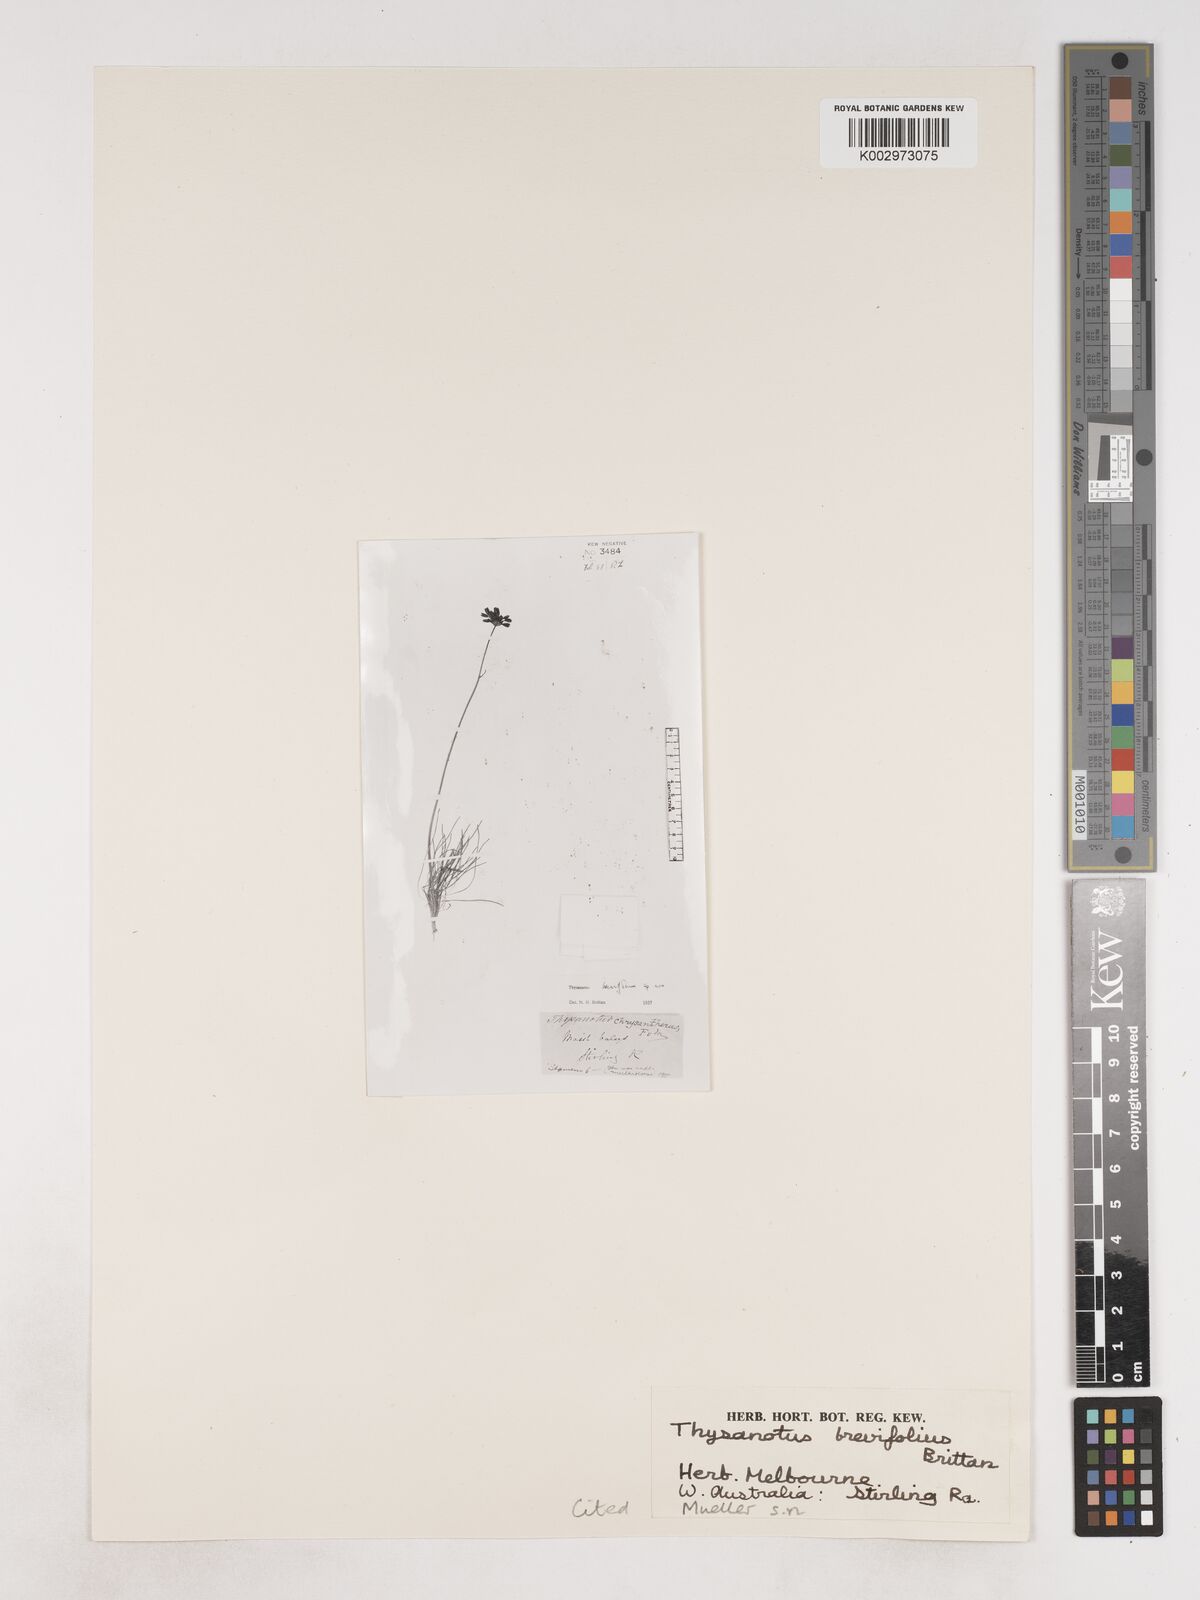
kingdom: Plantae
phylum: Tracheophyta
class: Liliopsida
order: Asparagales
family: Asparagaceae
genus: Thysanotus
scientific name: Thysanotus brevifolius
